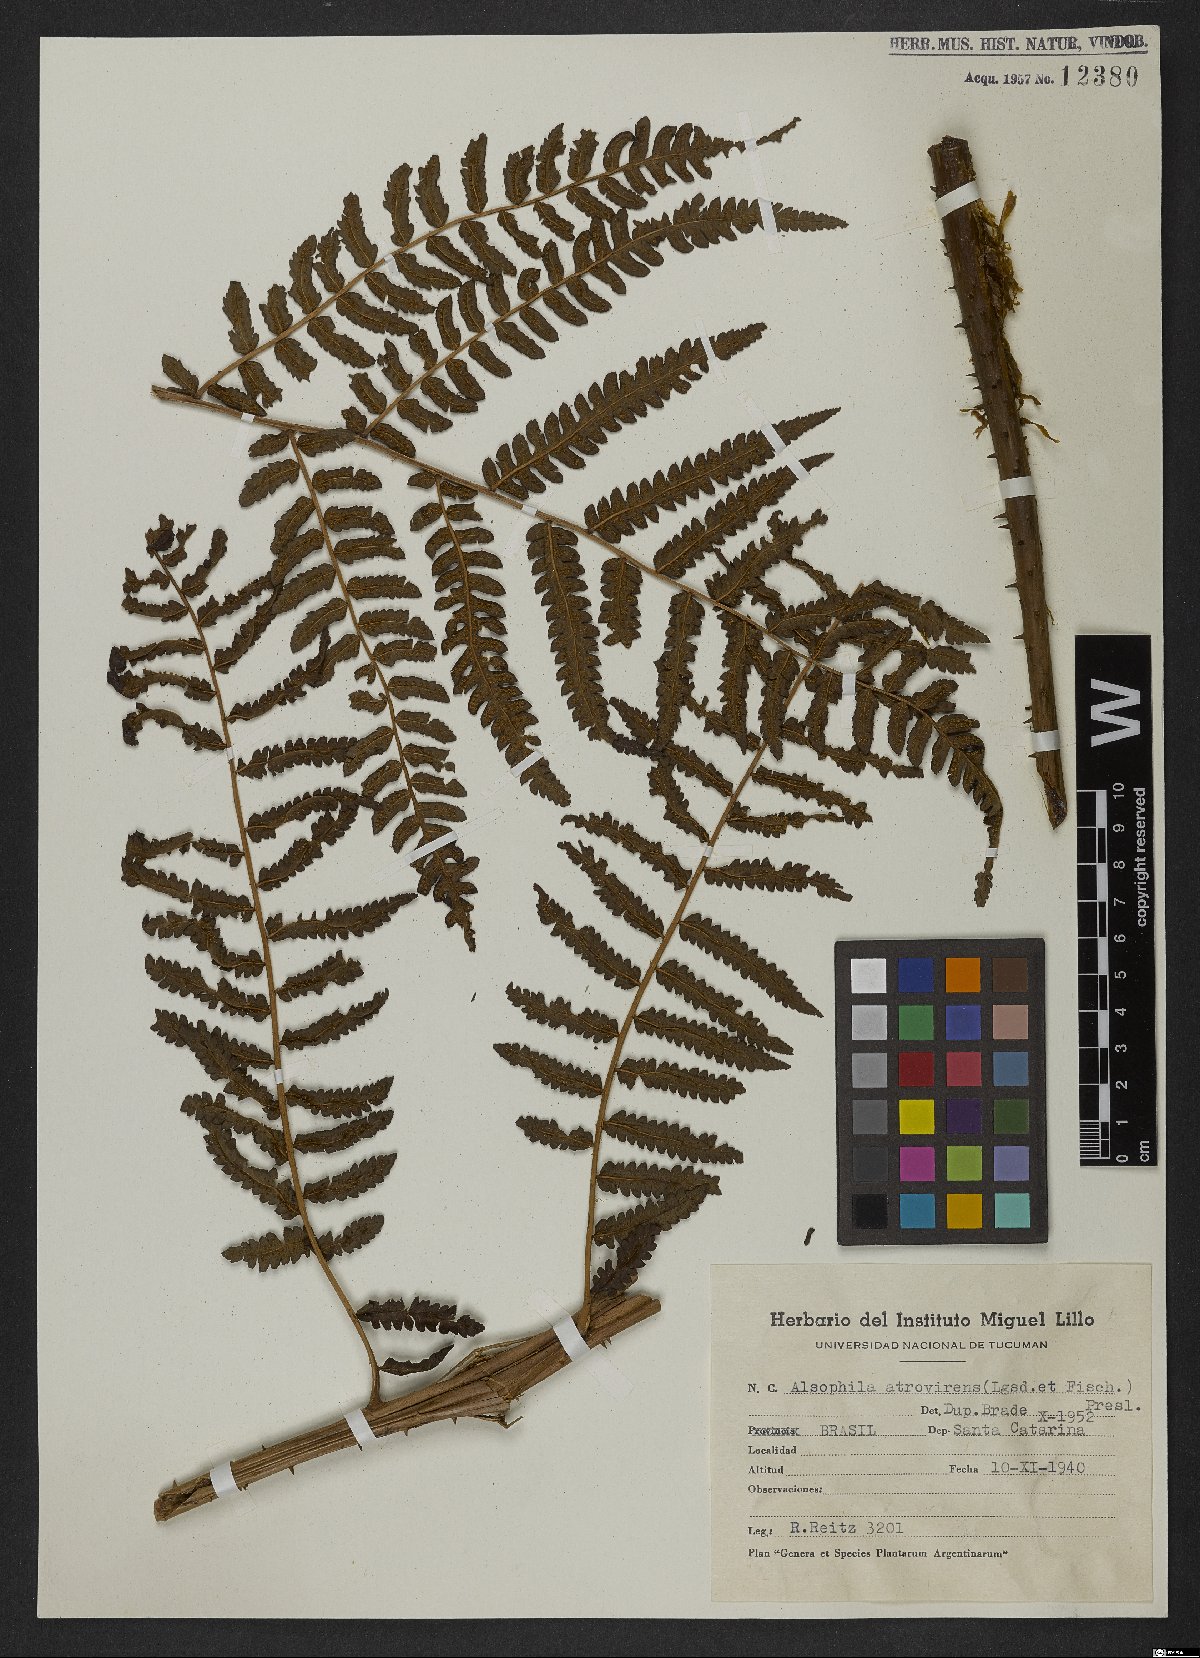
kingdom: Plantae
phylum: Tracheophyta
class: Polypodiopsida
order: Cyatheales
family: Cyatheaceae
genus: Cyathea
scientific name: Cyathea atrovirens
